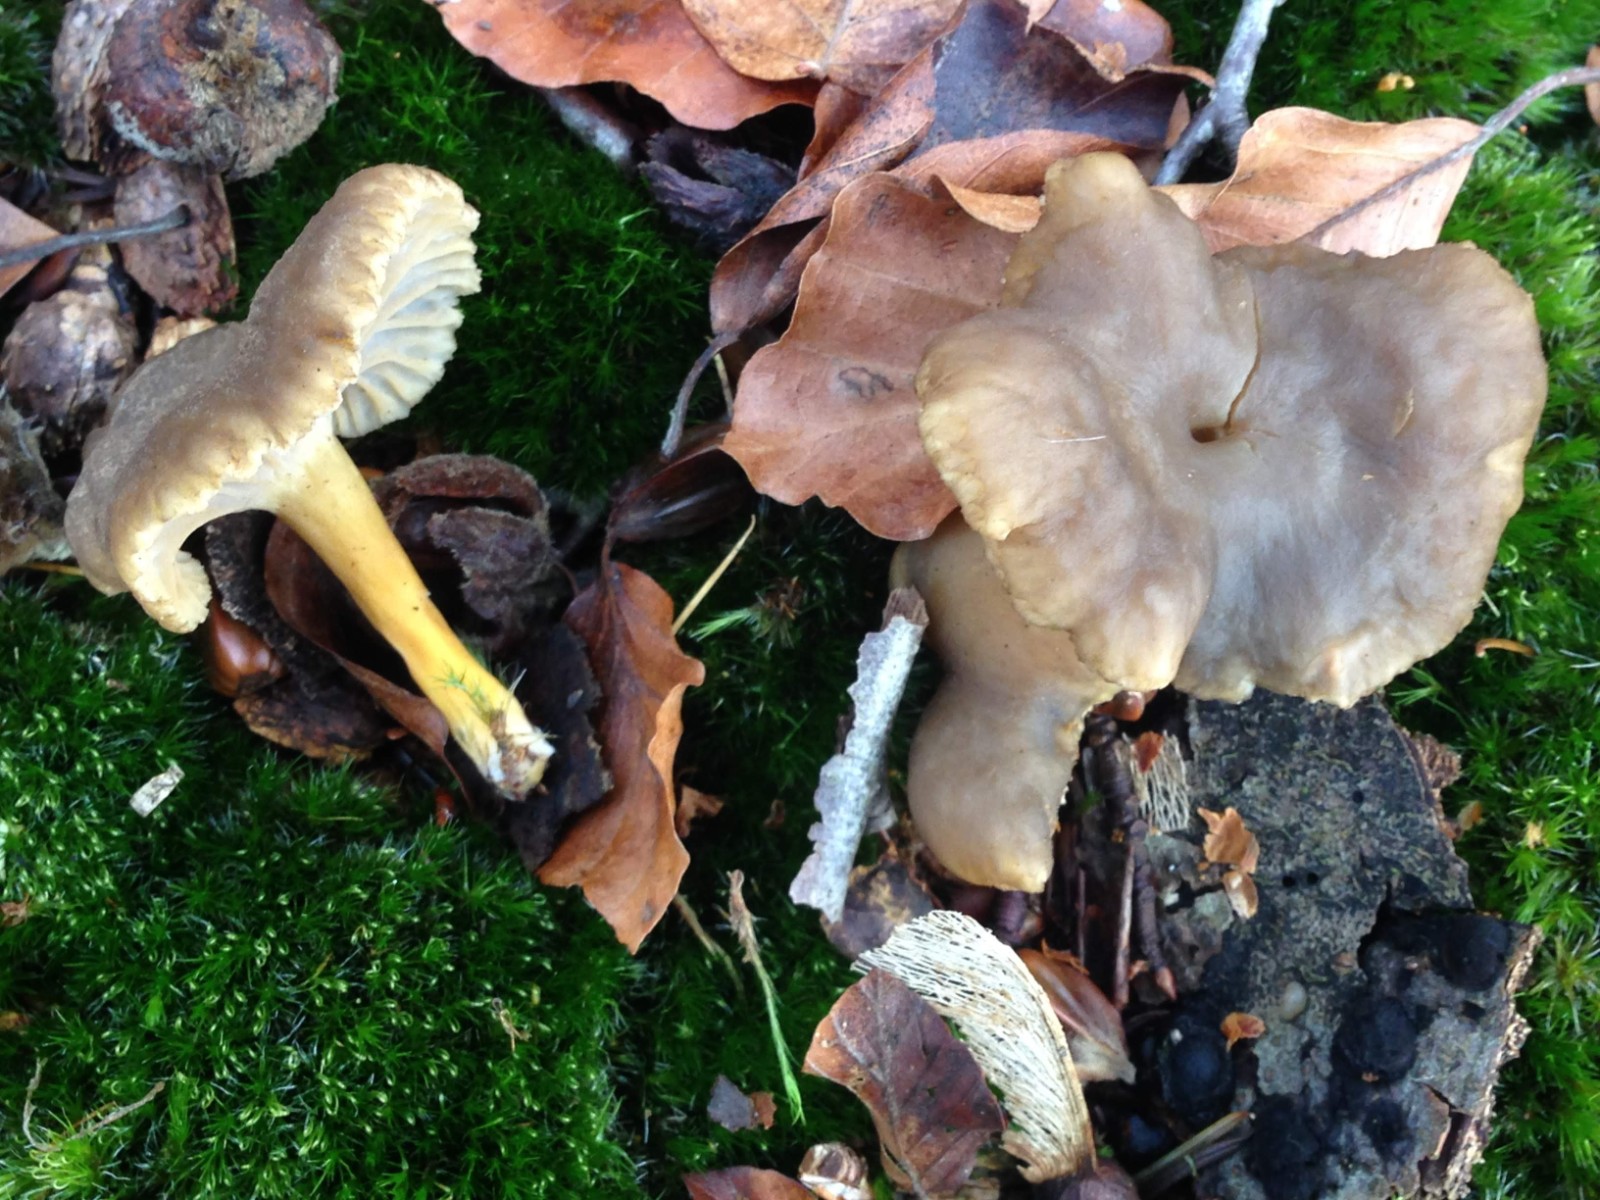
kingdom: Fungi
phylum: Basidiomycota
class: Agaricomycetes
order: Cantharellales
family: Hydnaceae
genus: Craterellus
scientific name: Craterellus tubaeformis
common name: tragt-kantarel
